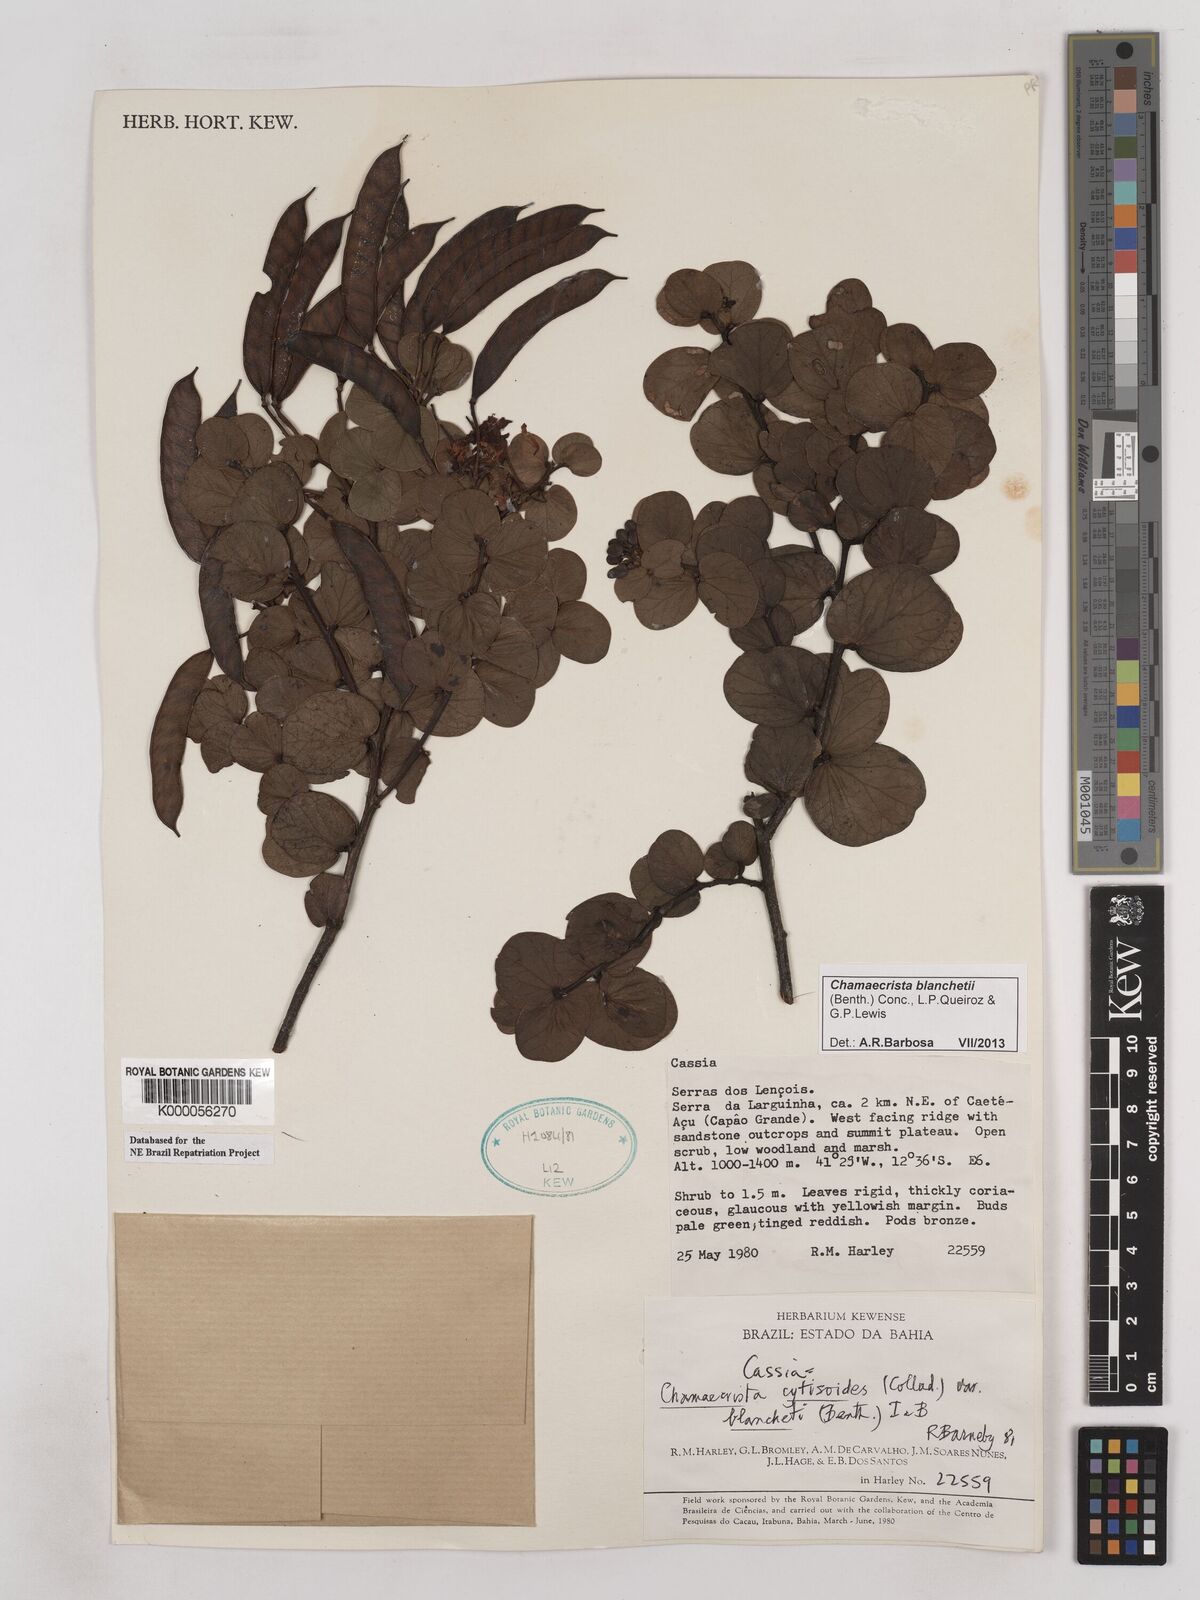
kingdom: Plantae
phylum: Tracheophyta
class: Magnoliopsida
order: Fabales
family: Fabaceae
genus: Chamaecrista
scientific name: Chamaecrista cytisoides
